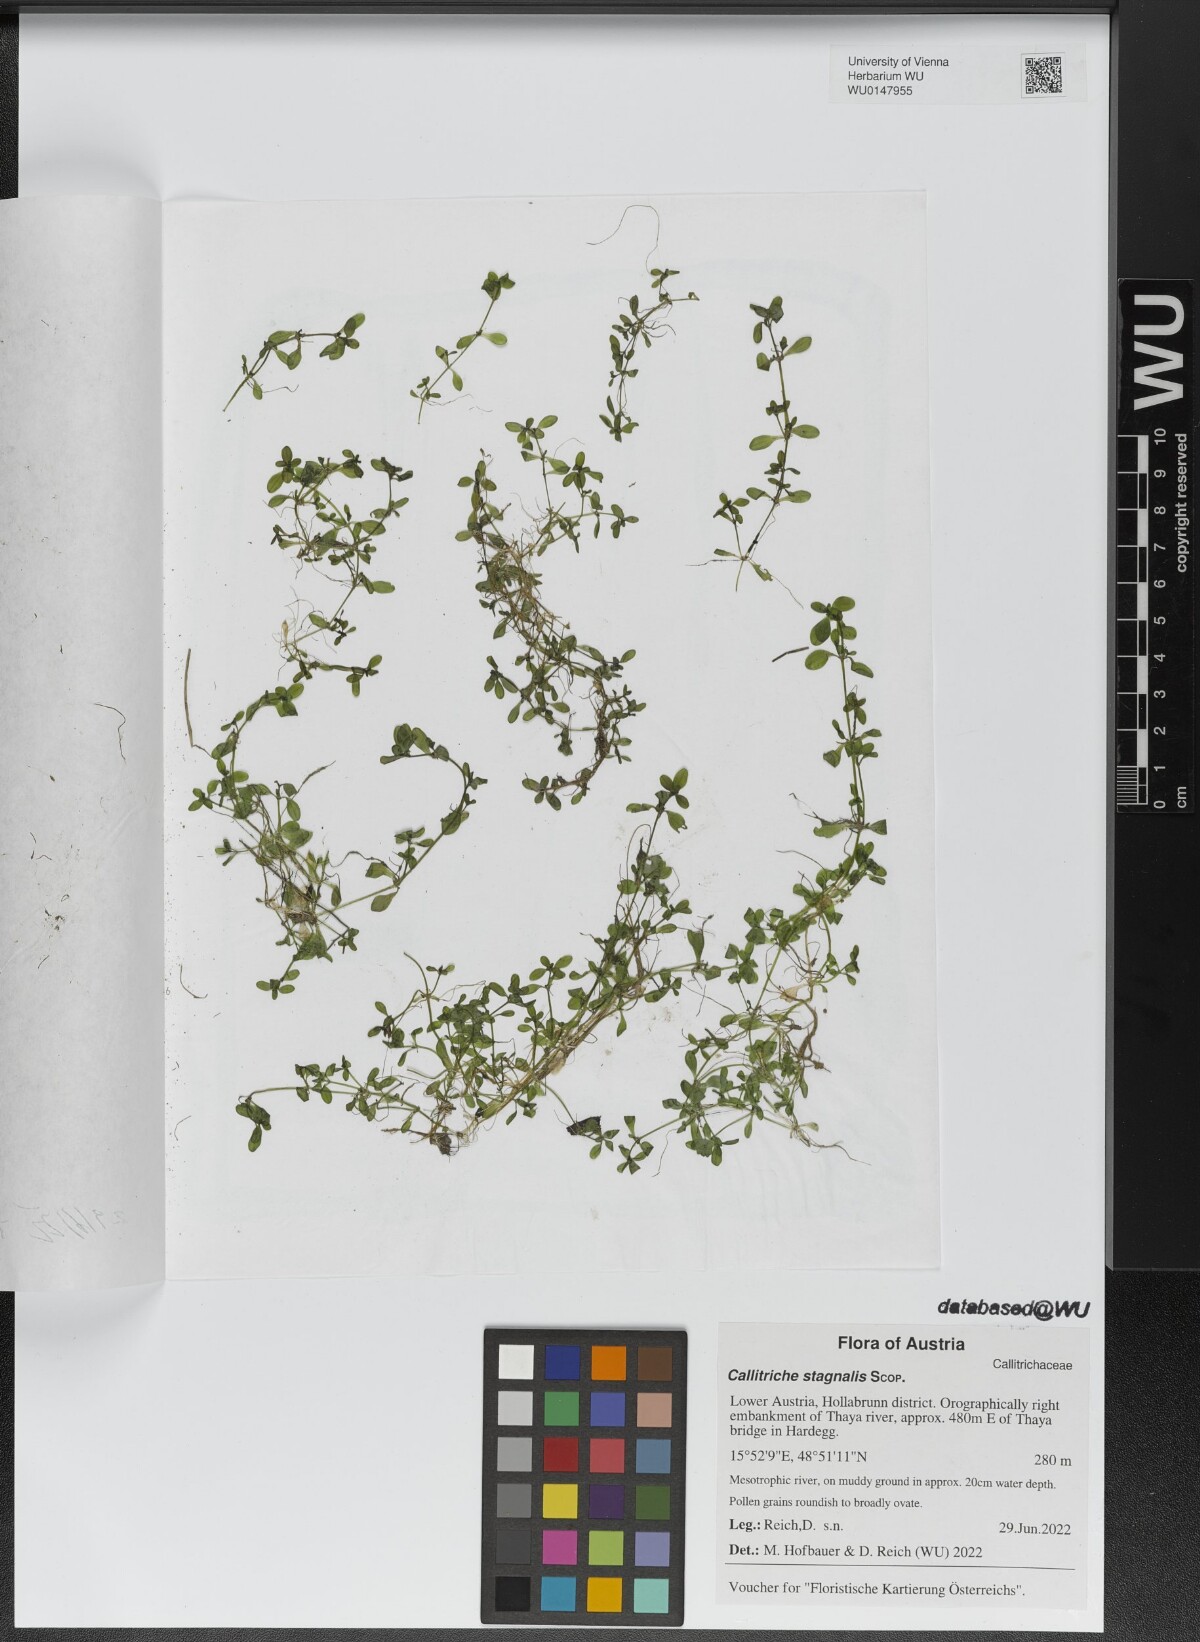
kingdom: Plantae
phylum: Tracheophyta
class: Magnoliopsida
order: Lamiales
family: Plantaginaceae
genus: Callitriche
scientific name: Callitriche stagnalis
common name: Common water-starwort
